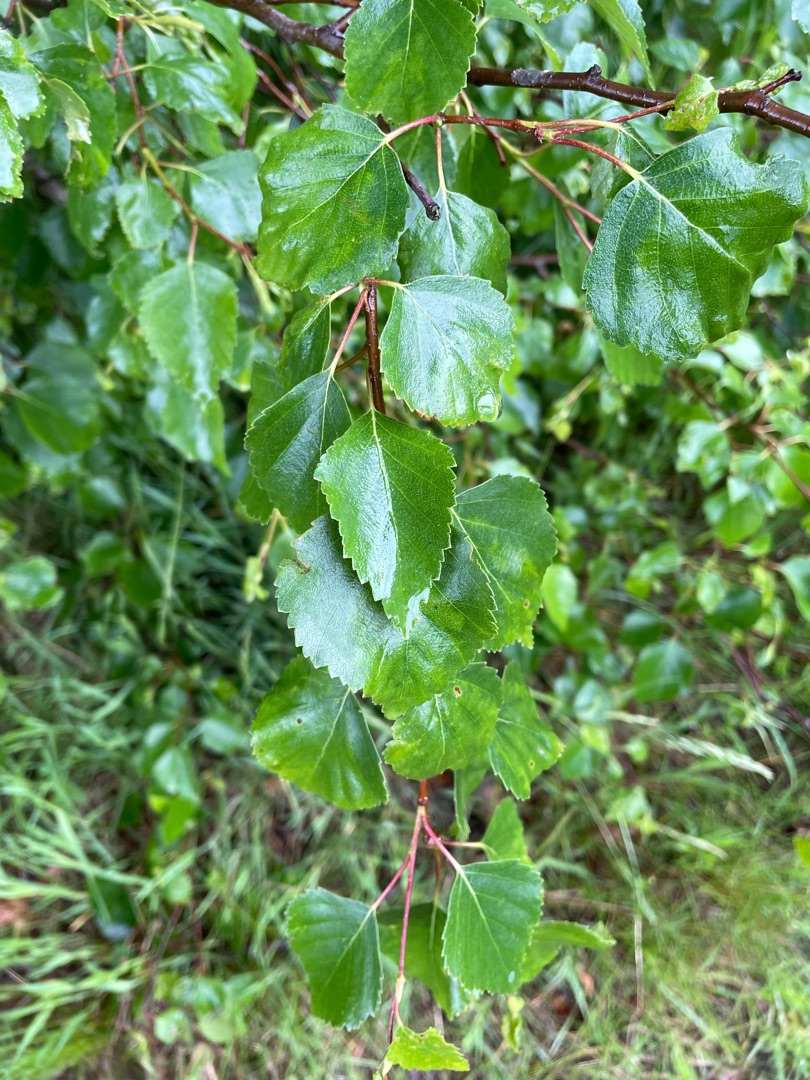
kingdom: Plantae
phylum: Tracheophyta
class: Magnoliopsida
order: Fagales
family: Betulaceae
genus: Betula
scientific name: Betula pendula
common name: Vorte-birk
